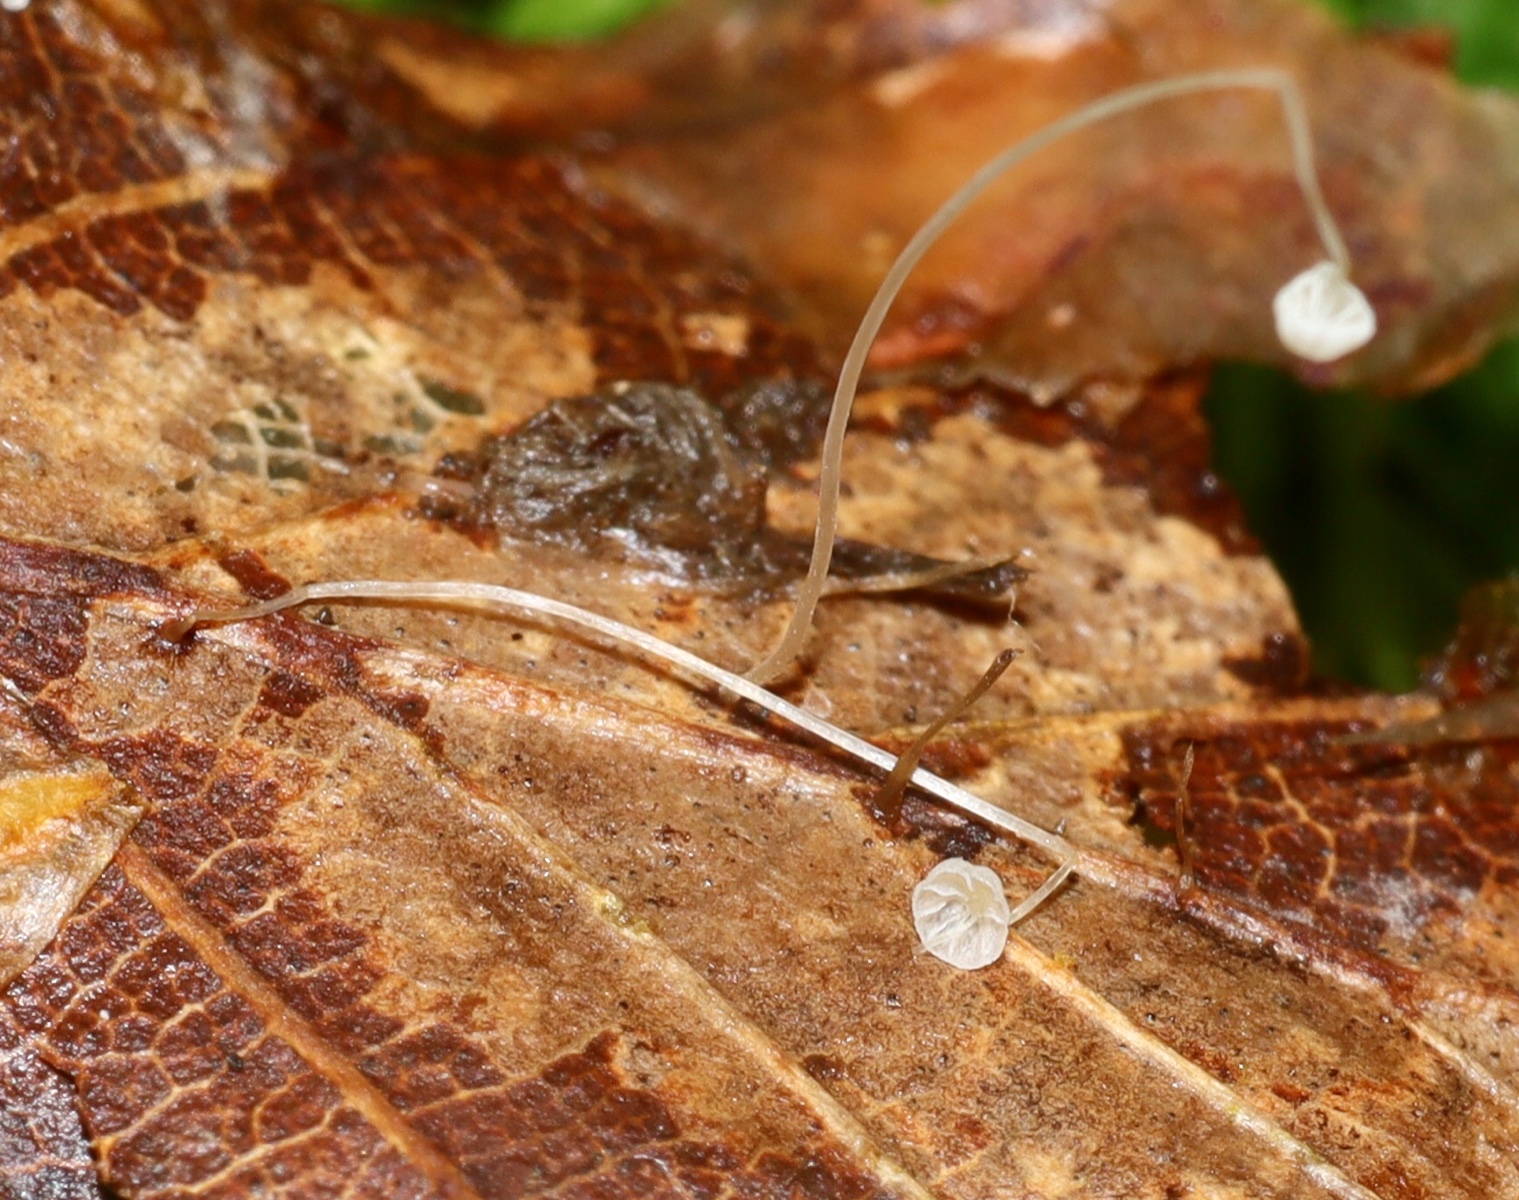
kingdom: Fungi
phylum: Basidiomycota
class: Agaricomycetes
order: Agaricales
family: Mycenaceae
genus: Mycena
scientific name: Mycena polyadelpha
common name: egeblads-huesvamp
